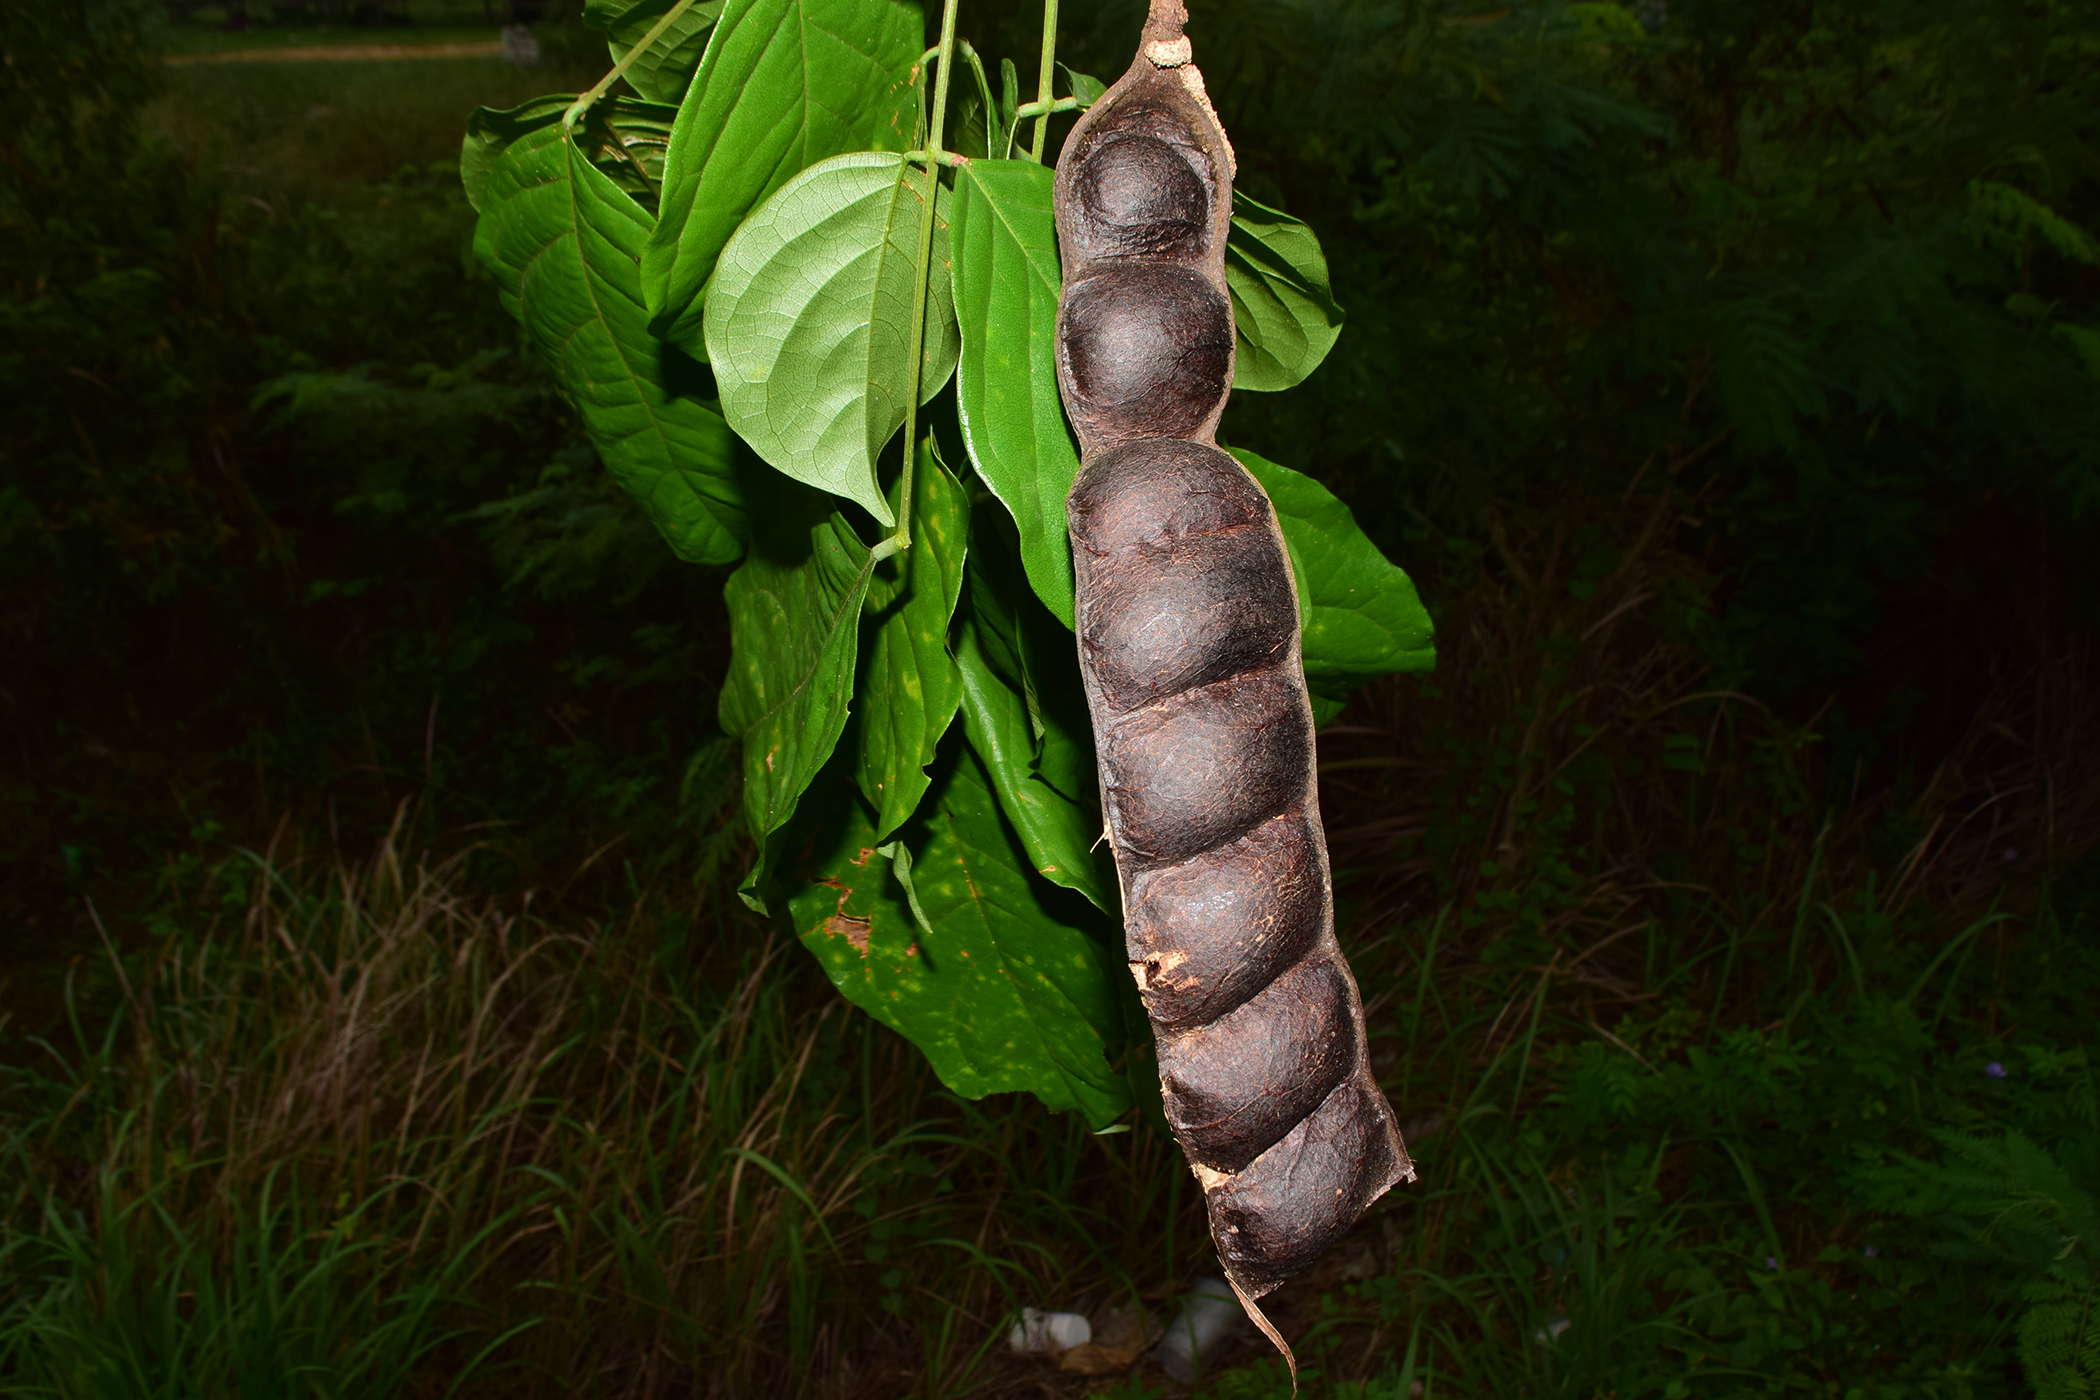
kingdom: Plantae
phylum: Tracheophyta
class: Magnoliopsida
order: Fabales
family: Fabaceae
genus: Albizia
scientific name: Albizia splendens
